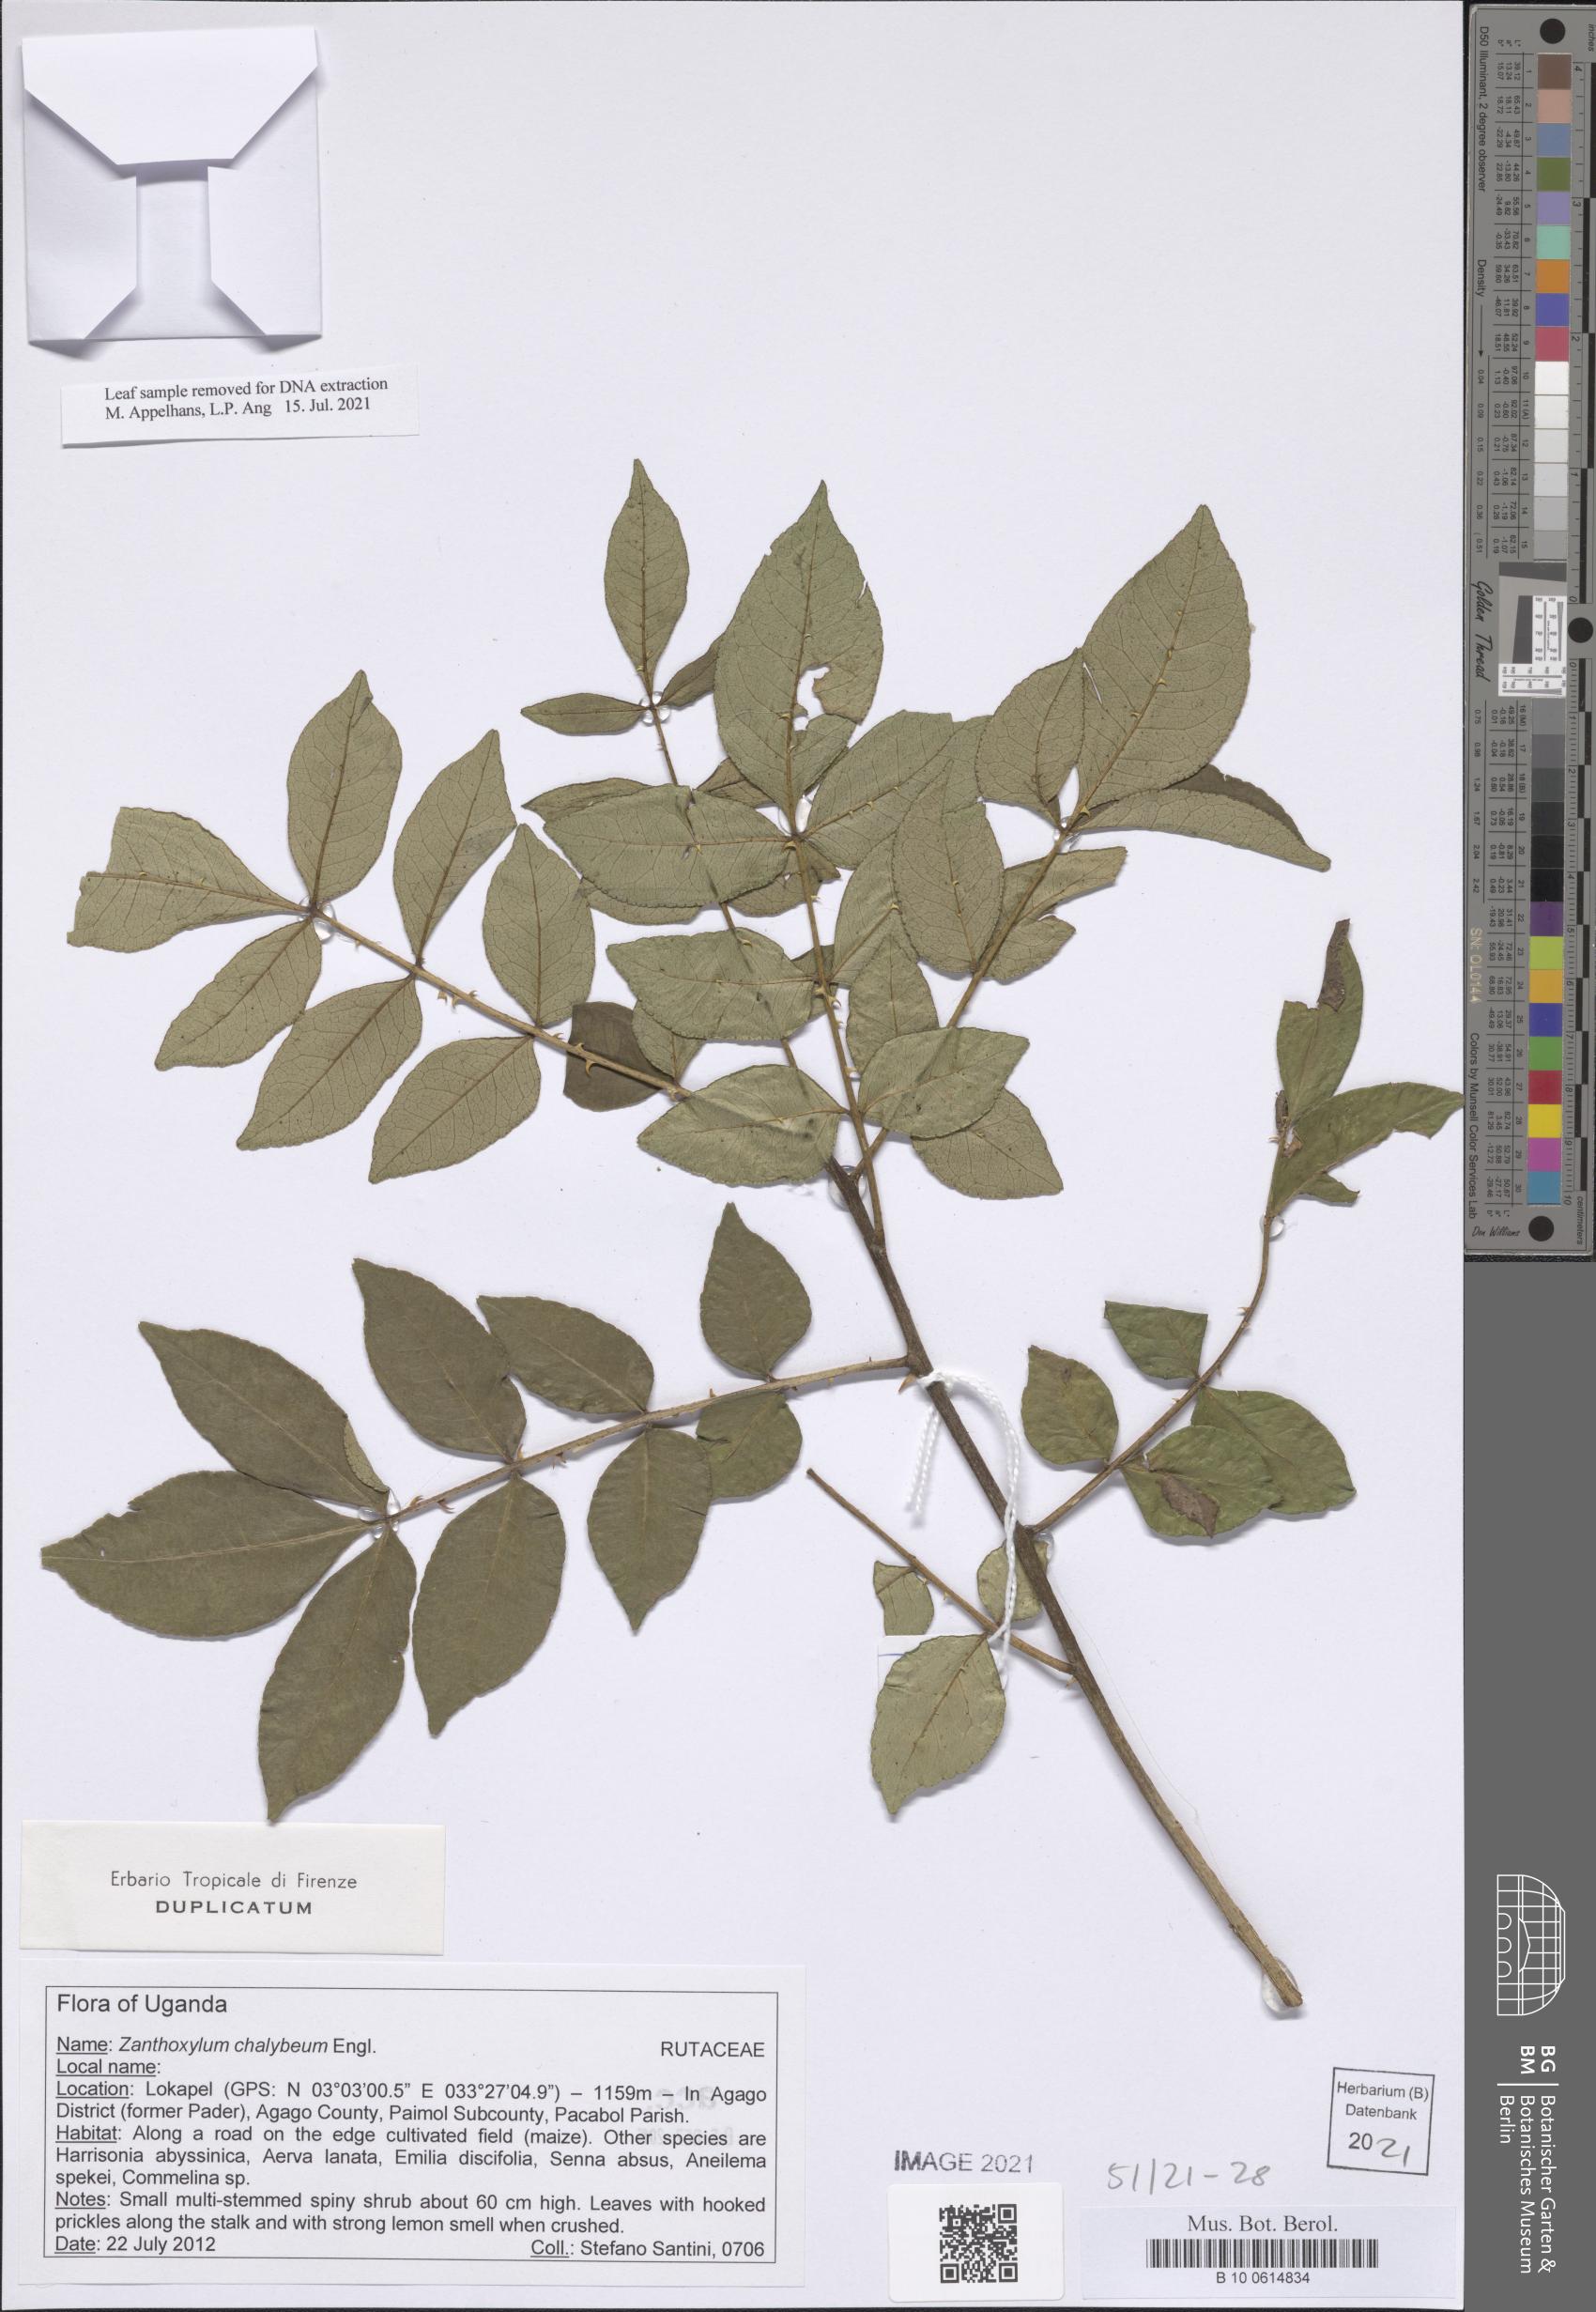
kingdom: Plantae
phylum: Tracheophyta
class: Magnoliopsida
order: Sapindales
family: Rutaceae
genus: Zanthoxylum
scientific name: Zanthoxylum chalybaeum
